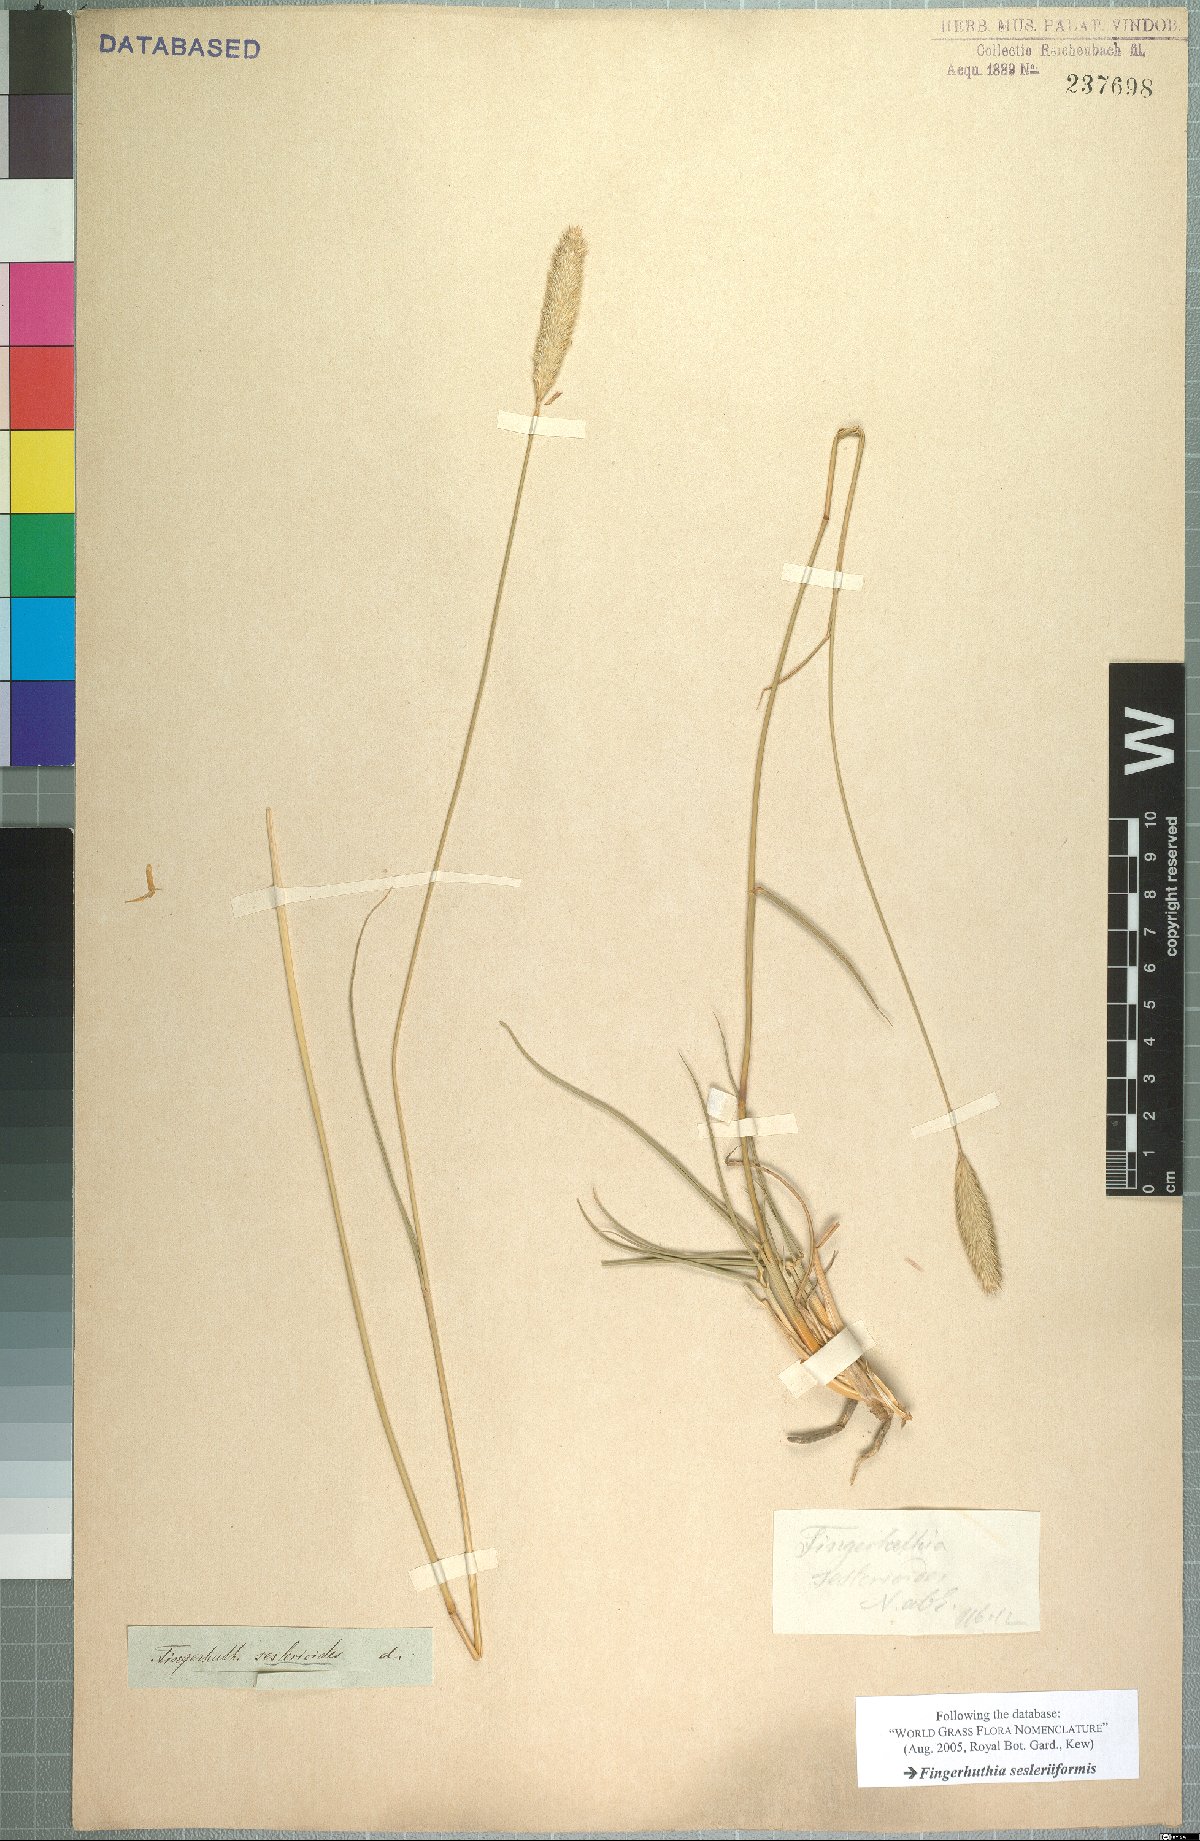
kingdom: Plantae
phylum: Tracheophyta
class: Liliopsida
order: Poales
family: Poaceae
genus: Fingerhuthia
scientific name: Fingerhuthia sesleriiformis
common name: Thimble grass
